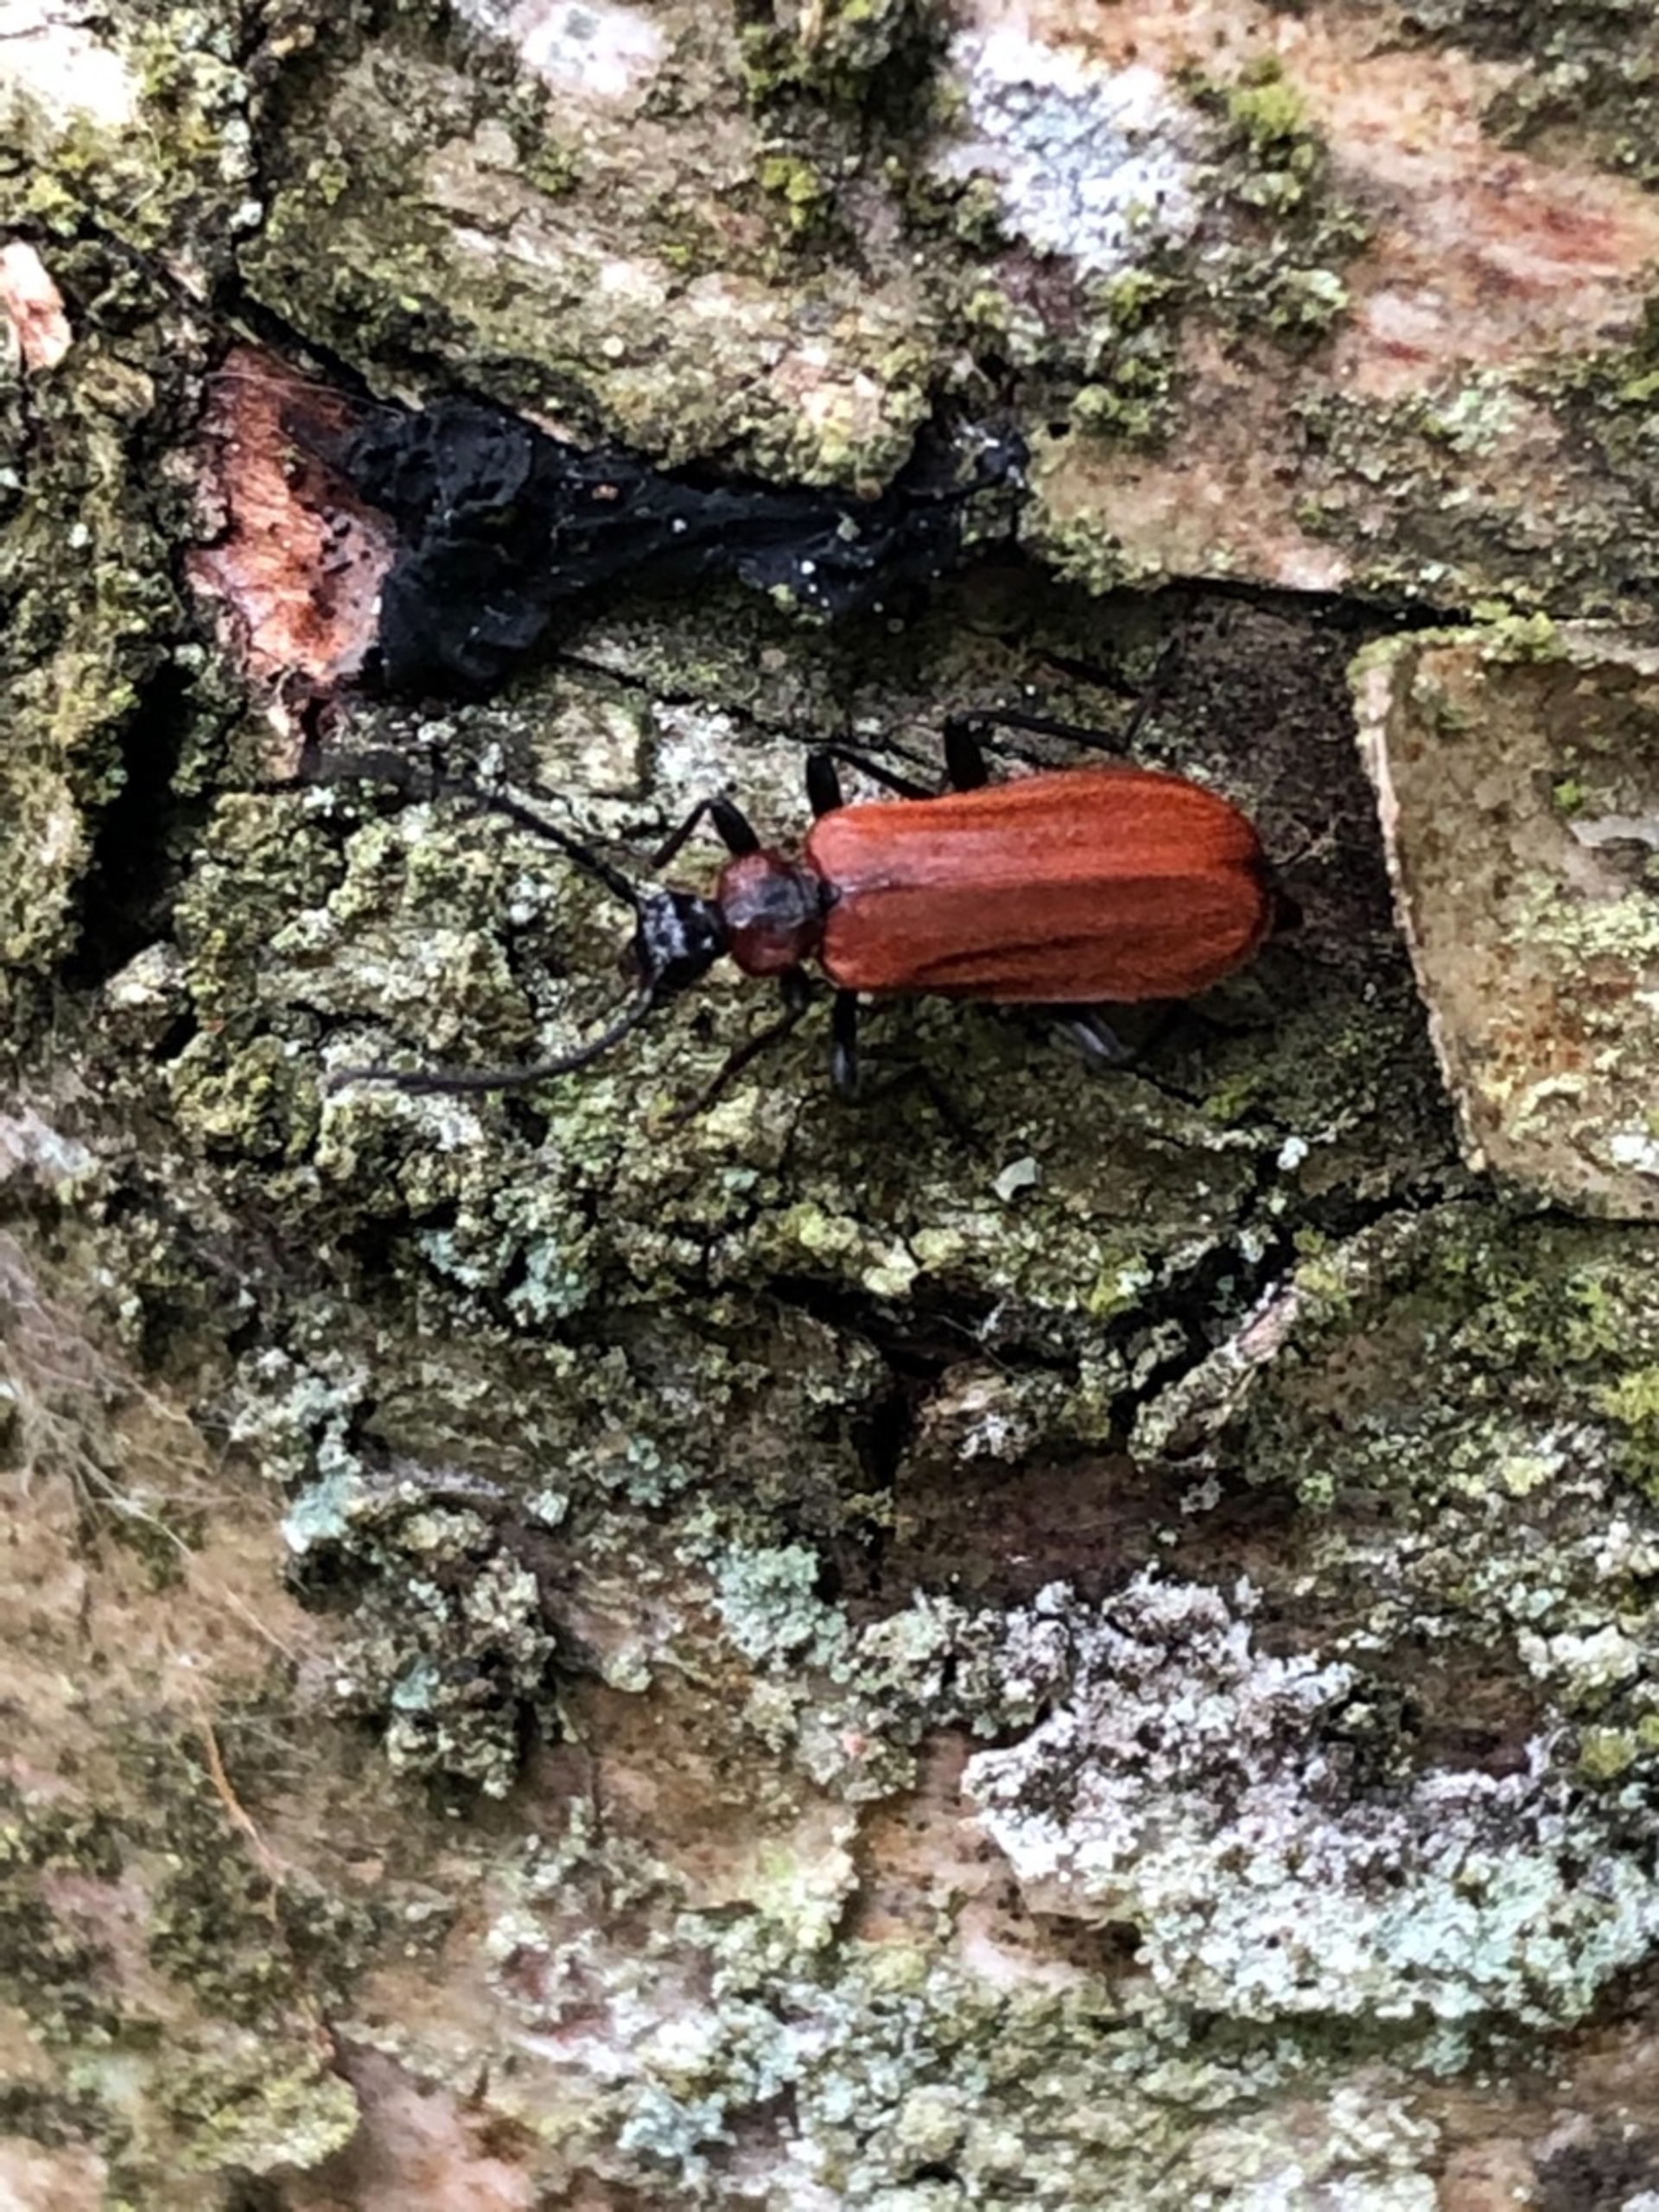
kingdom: Animalia
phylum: Arthropoda
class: Insecta
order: Coleoptera
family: Pyrochroidae
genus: Schizotus
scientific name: Schizotus pectinicornis
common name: Lille kardinalbille
